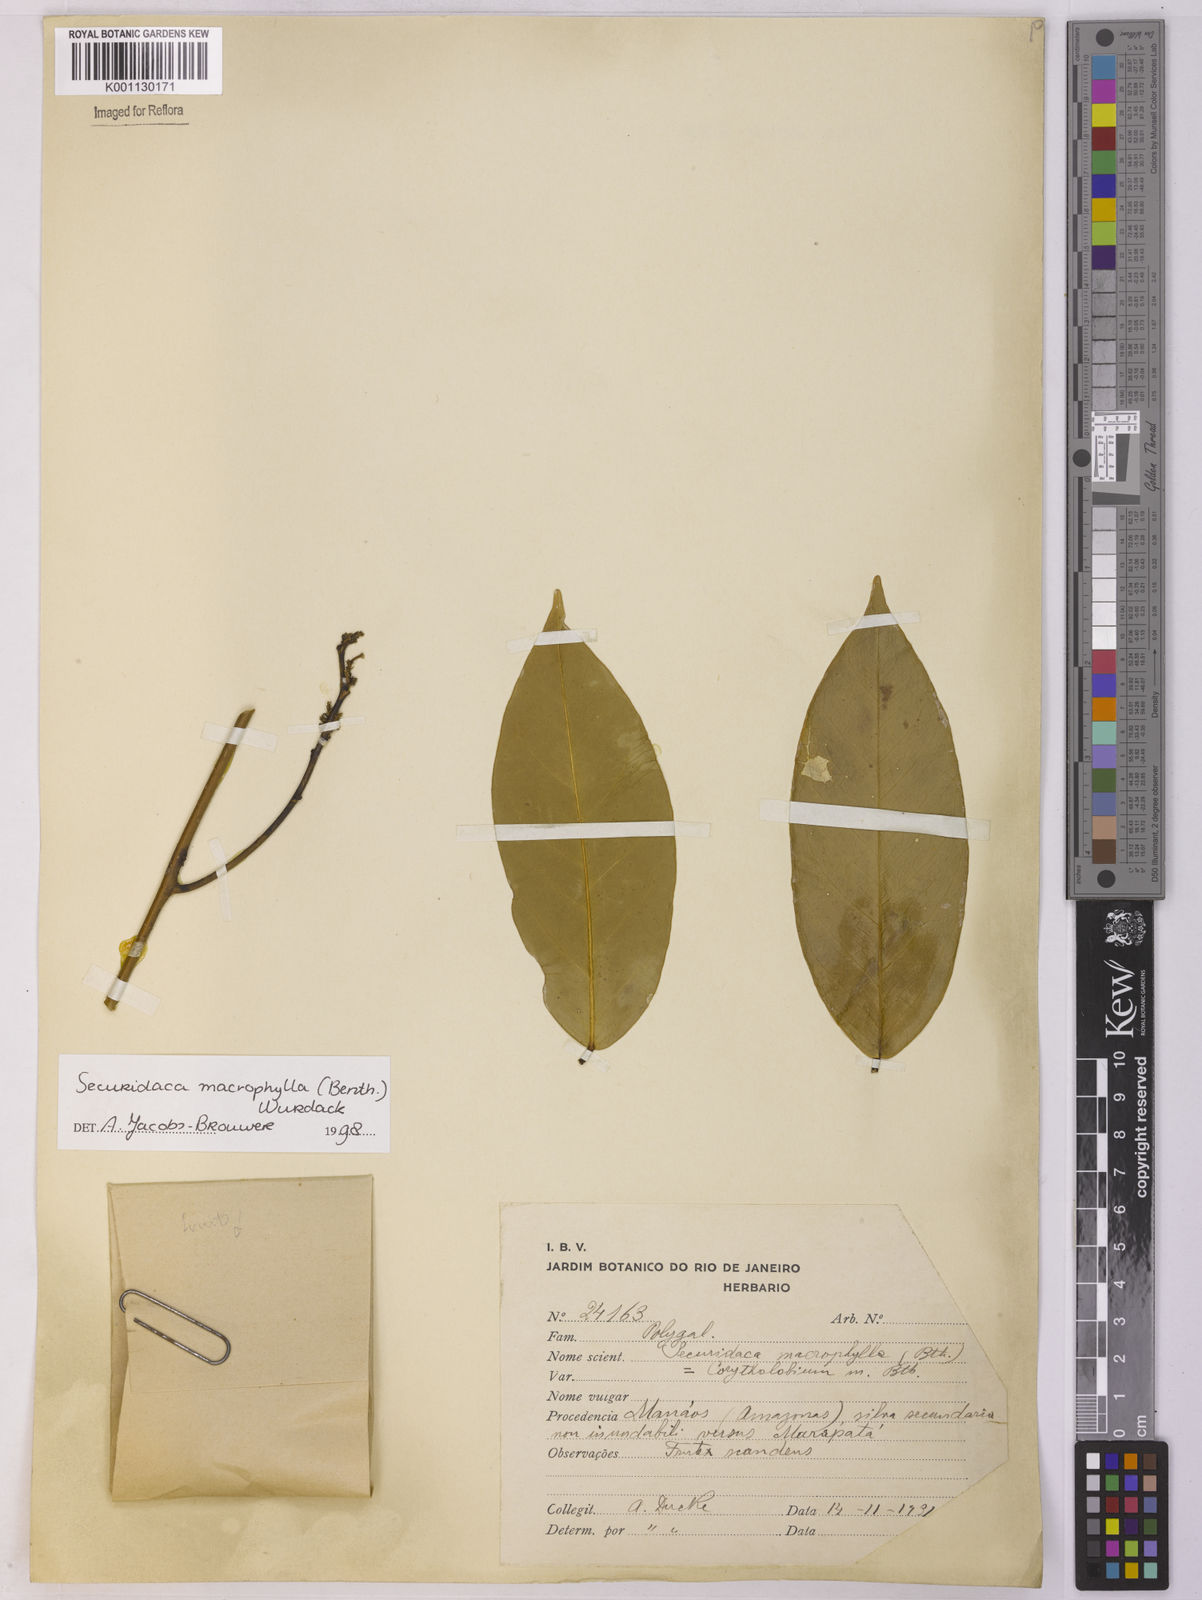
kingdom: Plantae
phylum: Tracheophyta
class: Magnoliopsida
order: Fabales
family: Polygalaceae
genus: Securidaca
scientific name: Securidaca calophylla
